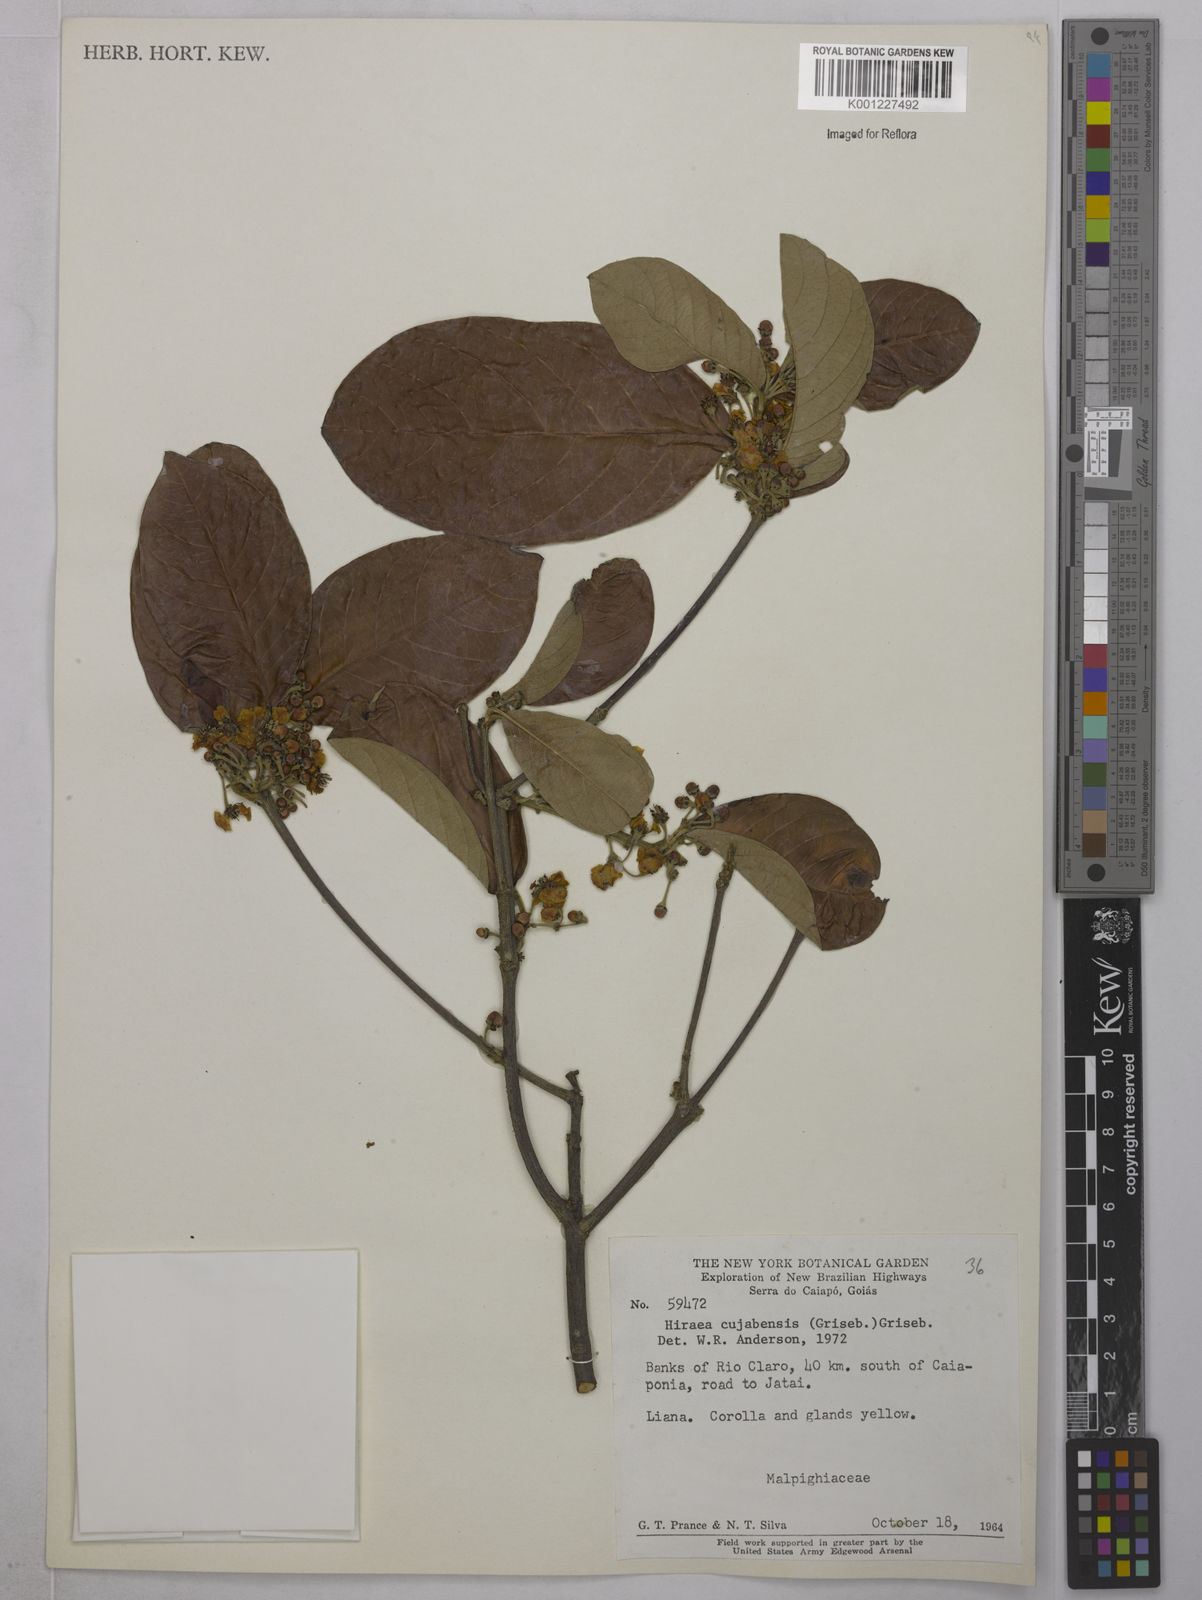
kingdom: Plantae
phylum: Tracheophyta
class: Magnoliopsida
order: Malpighiales
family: Malpighiaceae
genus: Hiraea
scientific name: Hiraea cuiabensis
